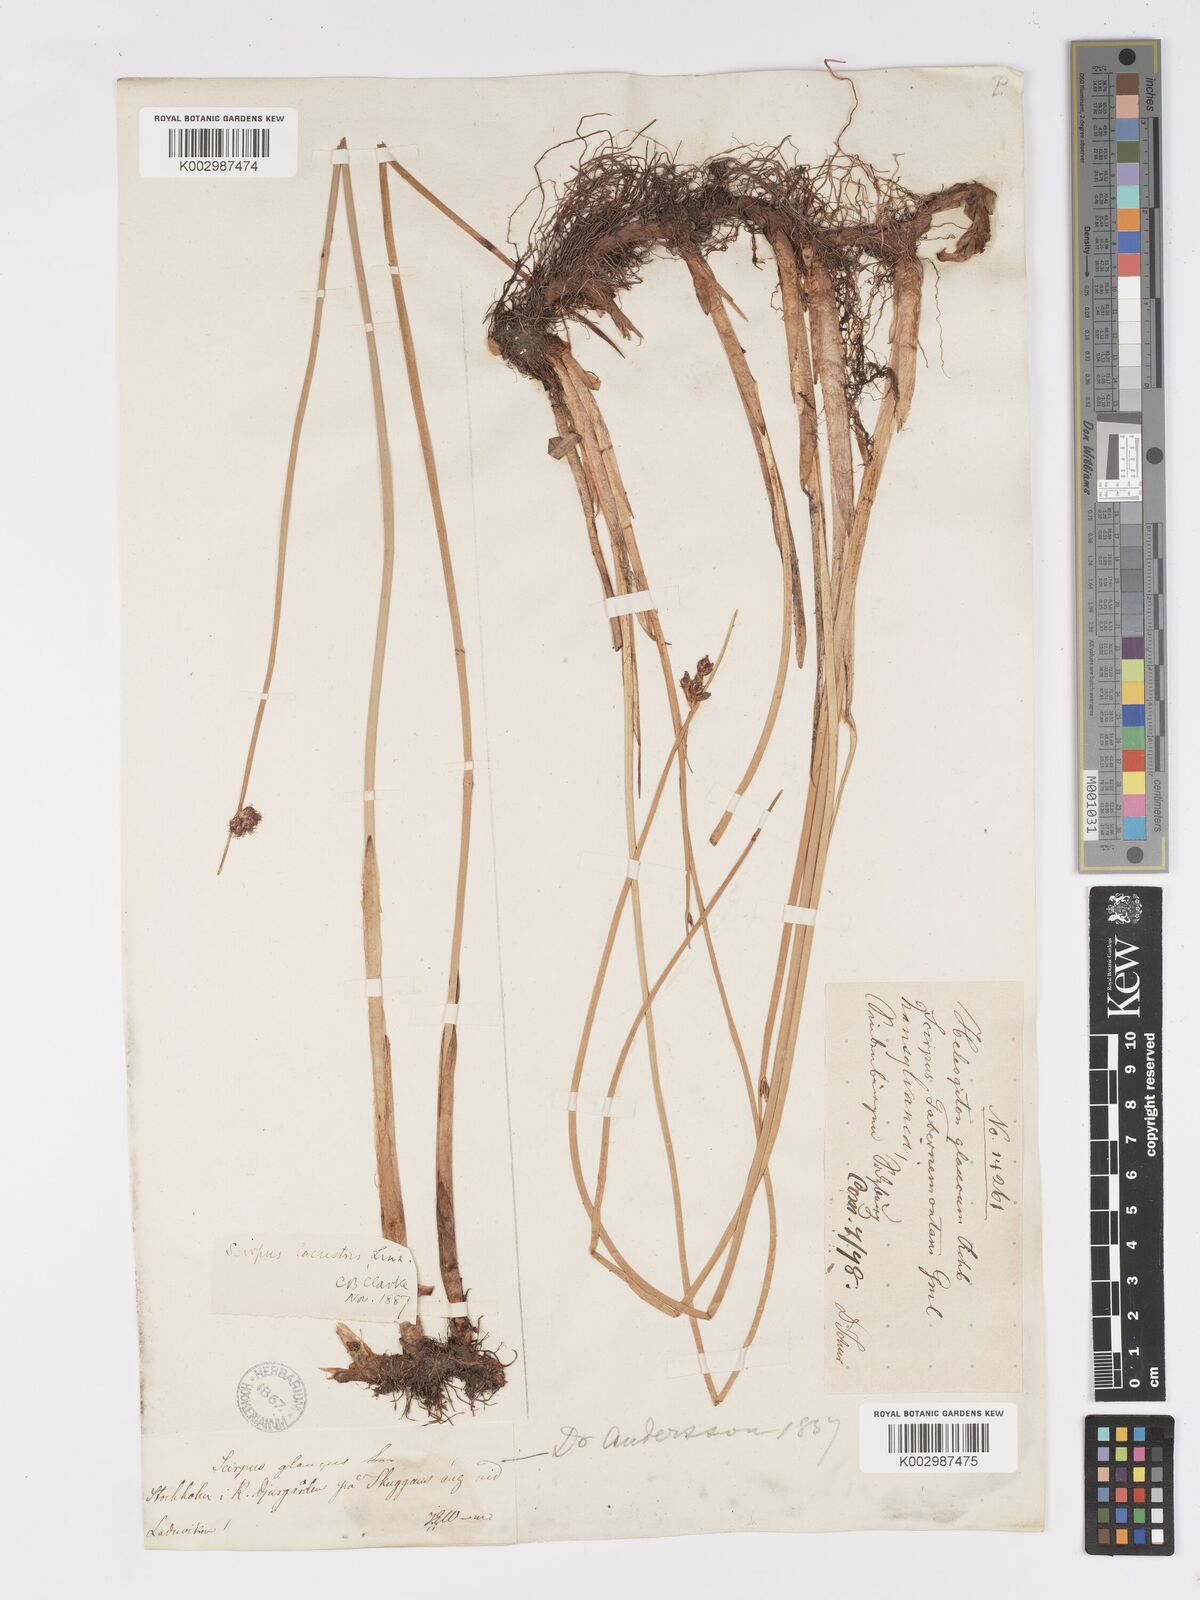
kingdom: Plantae
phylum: Tracheophyta
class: Liliopsida
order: Poales
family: Cyperaceae
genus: Schoenoplectus
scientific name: Schoenoplectus lacustris
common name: Common club-rush
